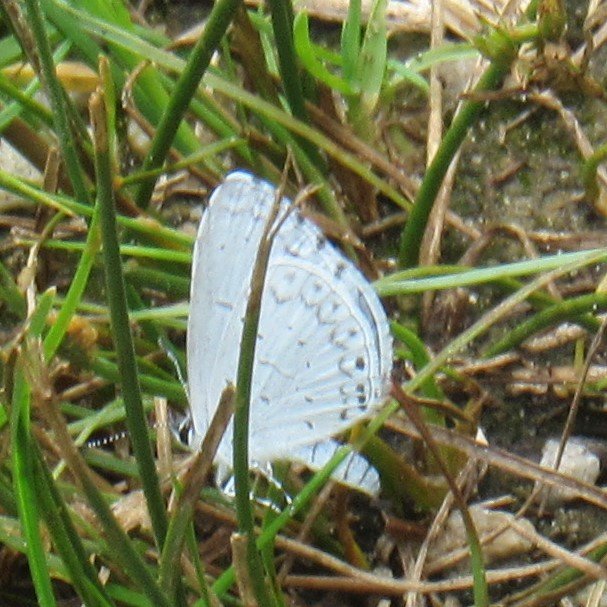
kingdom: Animalia
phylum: Arthropoda
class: Insecta
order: Lepidoptera
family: Lycaenidae
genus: Cyaniris
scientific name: Cyaniris neglecta
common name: Summer Azure
